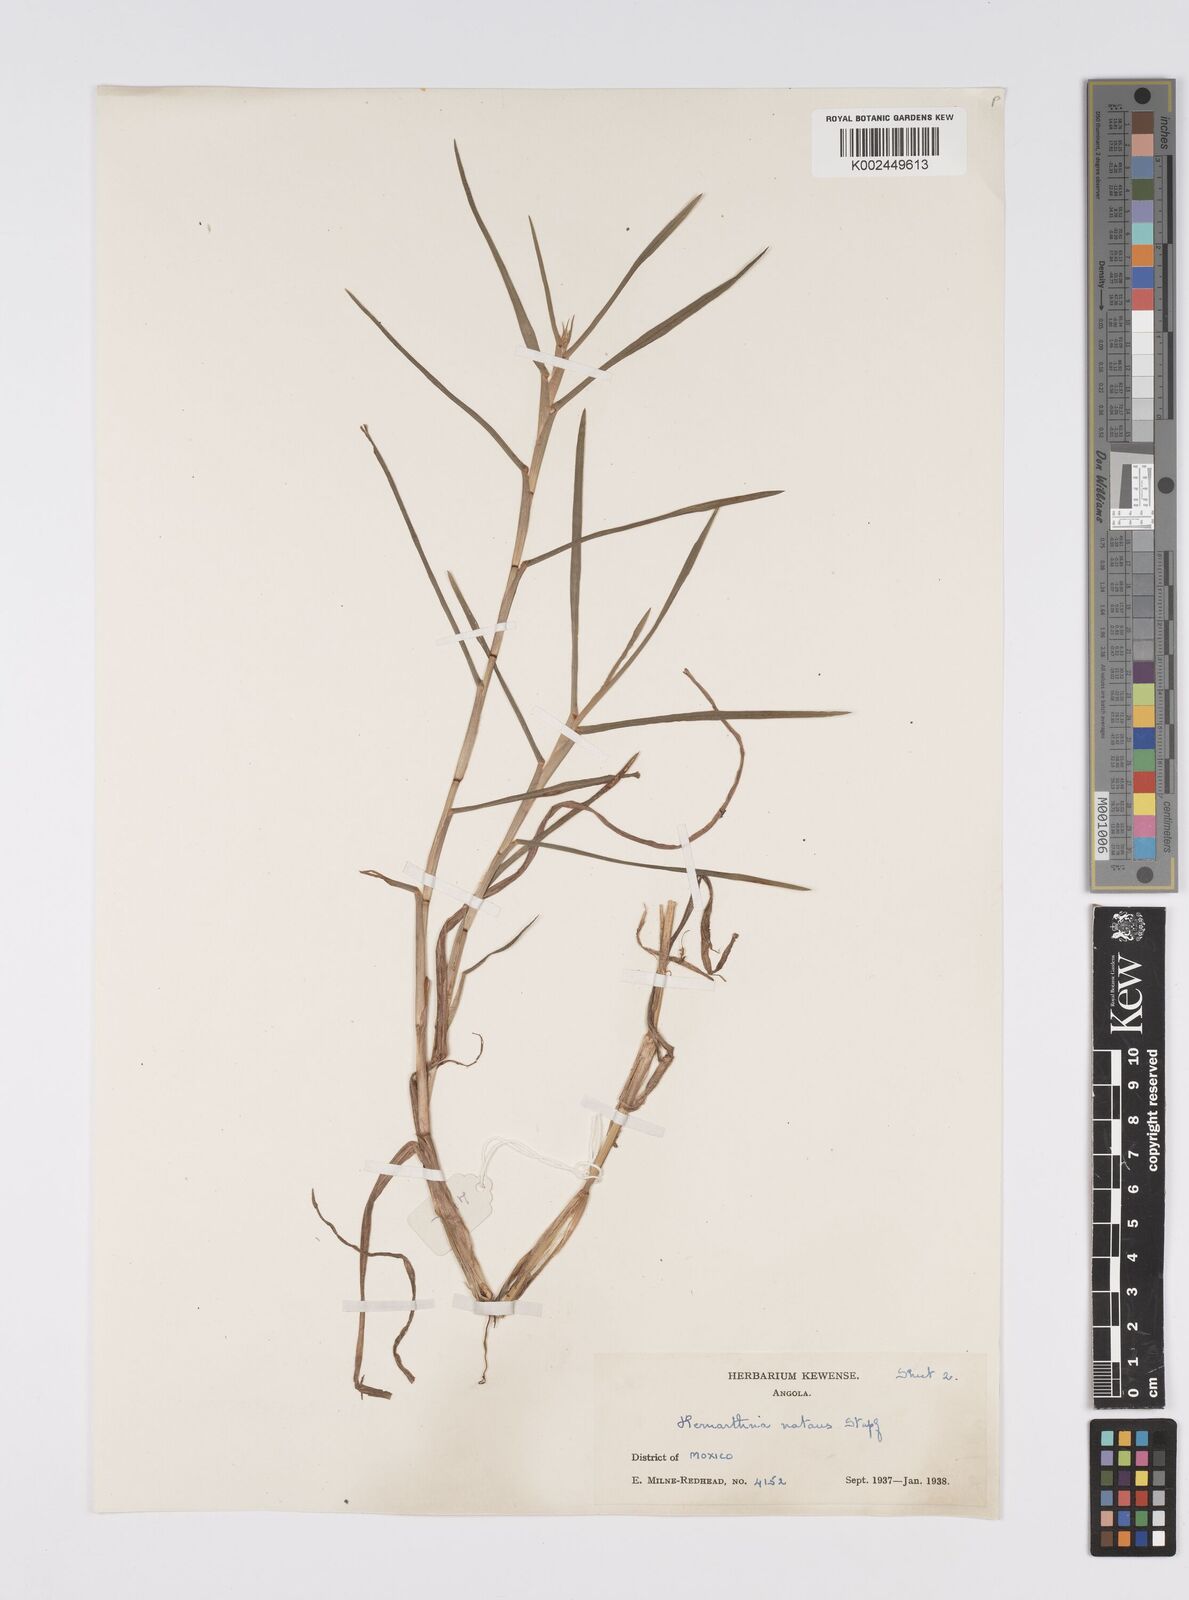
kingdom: Plantae
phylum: Tracheophyta
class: Liliopsida
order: Poales
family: Poaceae
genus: Hemarthria
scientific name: Hemarthria natans
